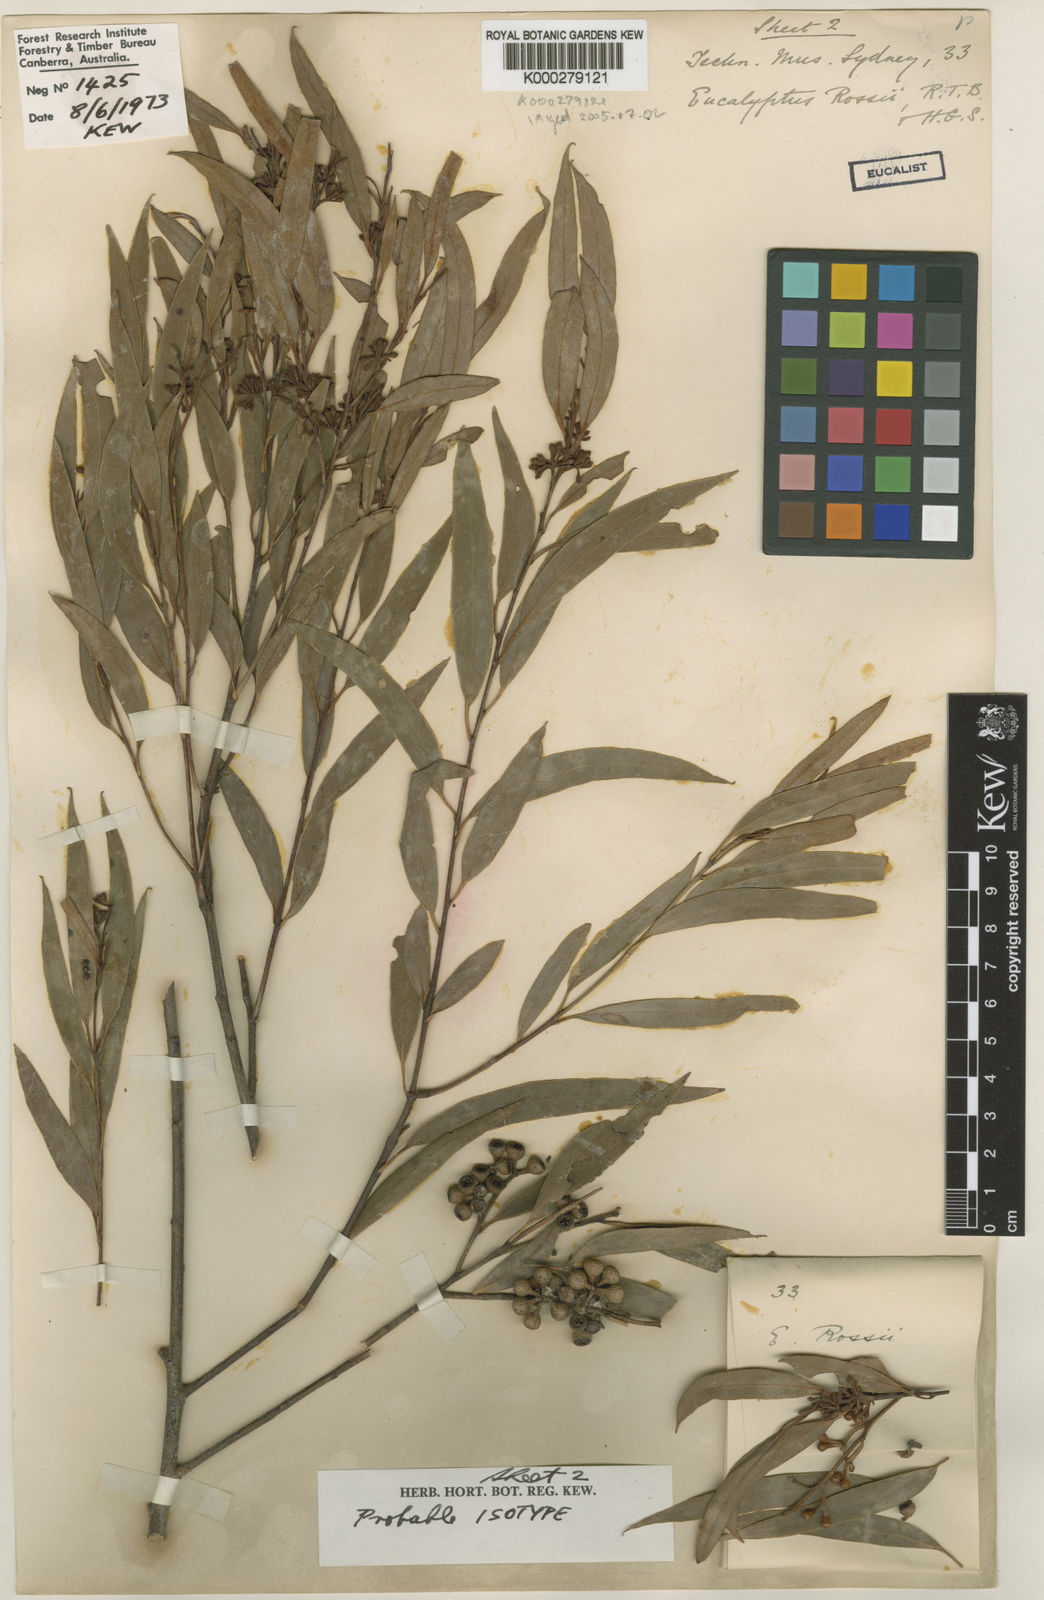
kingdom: Plantae
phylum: Tracheophyta
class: Magnoliopsida
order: Myrtales
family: Myrtaceae
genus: Eucalyptus
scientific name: Eucalyptus racemosa
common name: Scribbly gum
